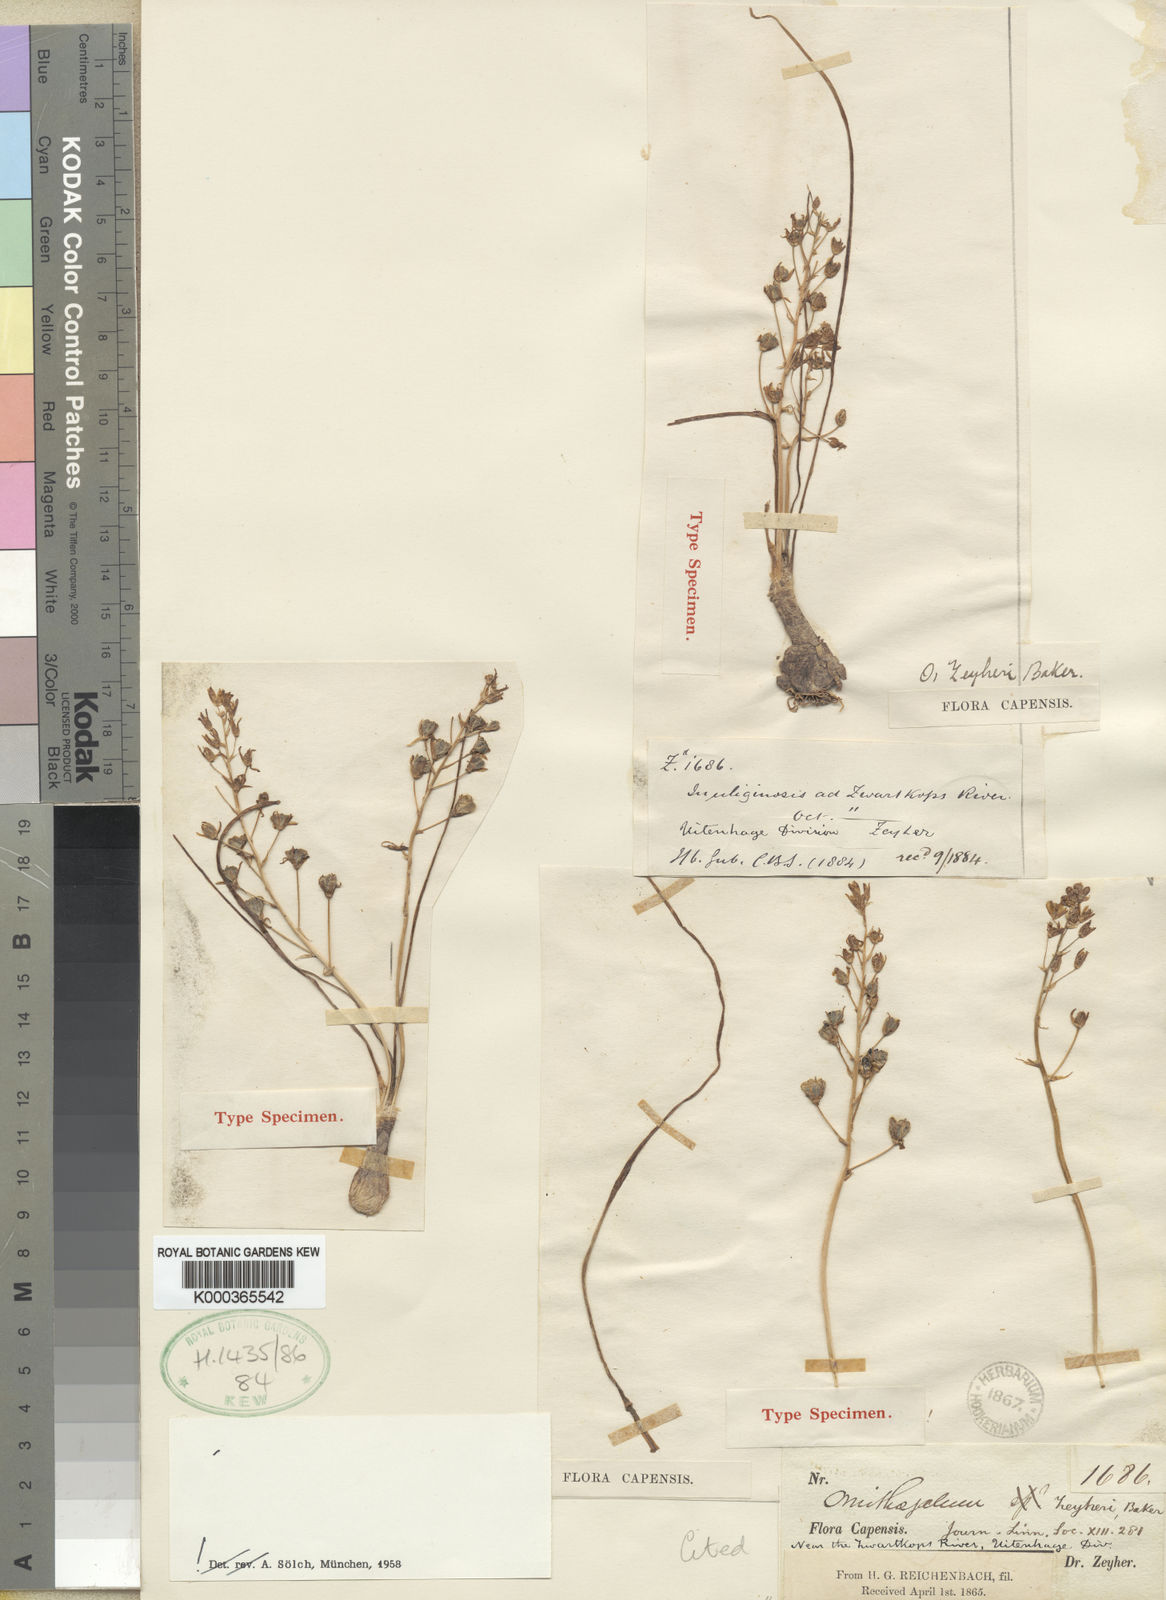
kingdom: Plantae
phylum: Tracheophyta
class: Liliopsida
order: Asparagales
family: Asparagaceae
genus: Ornithogalum
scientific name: Ornithogalum
